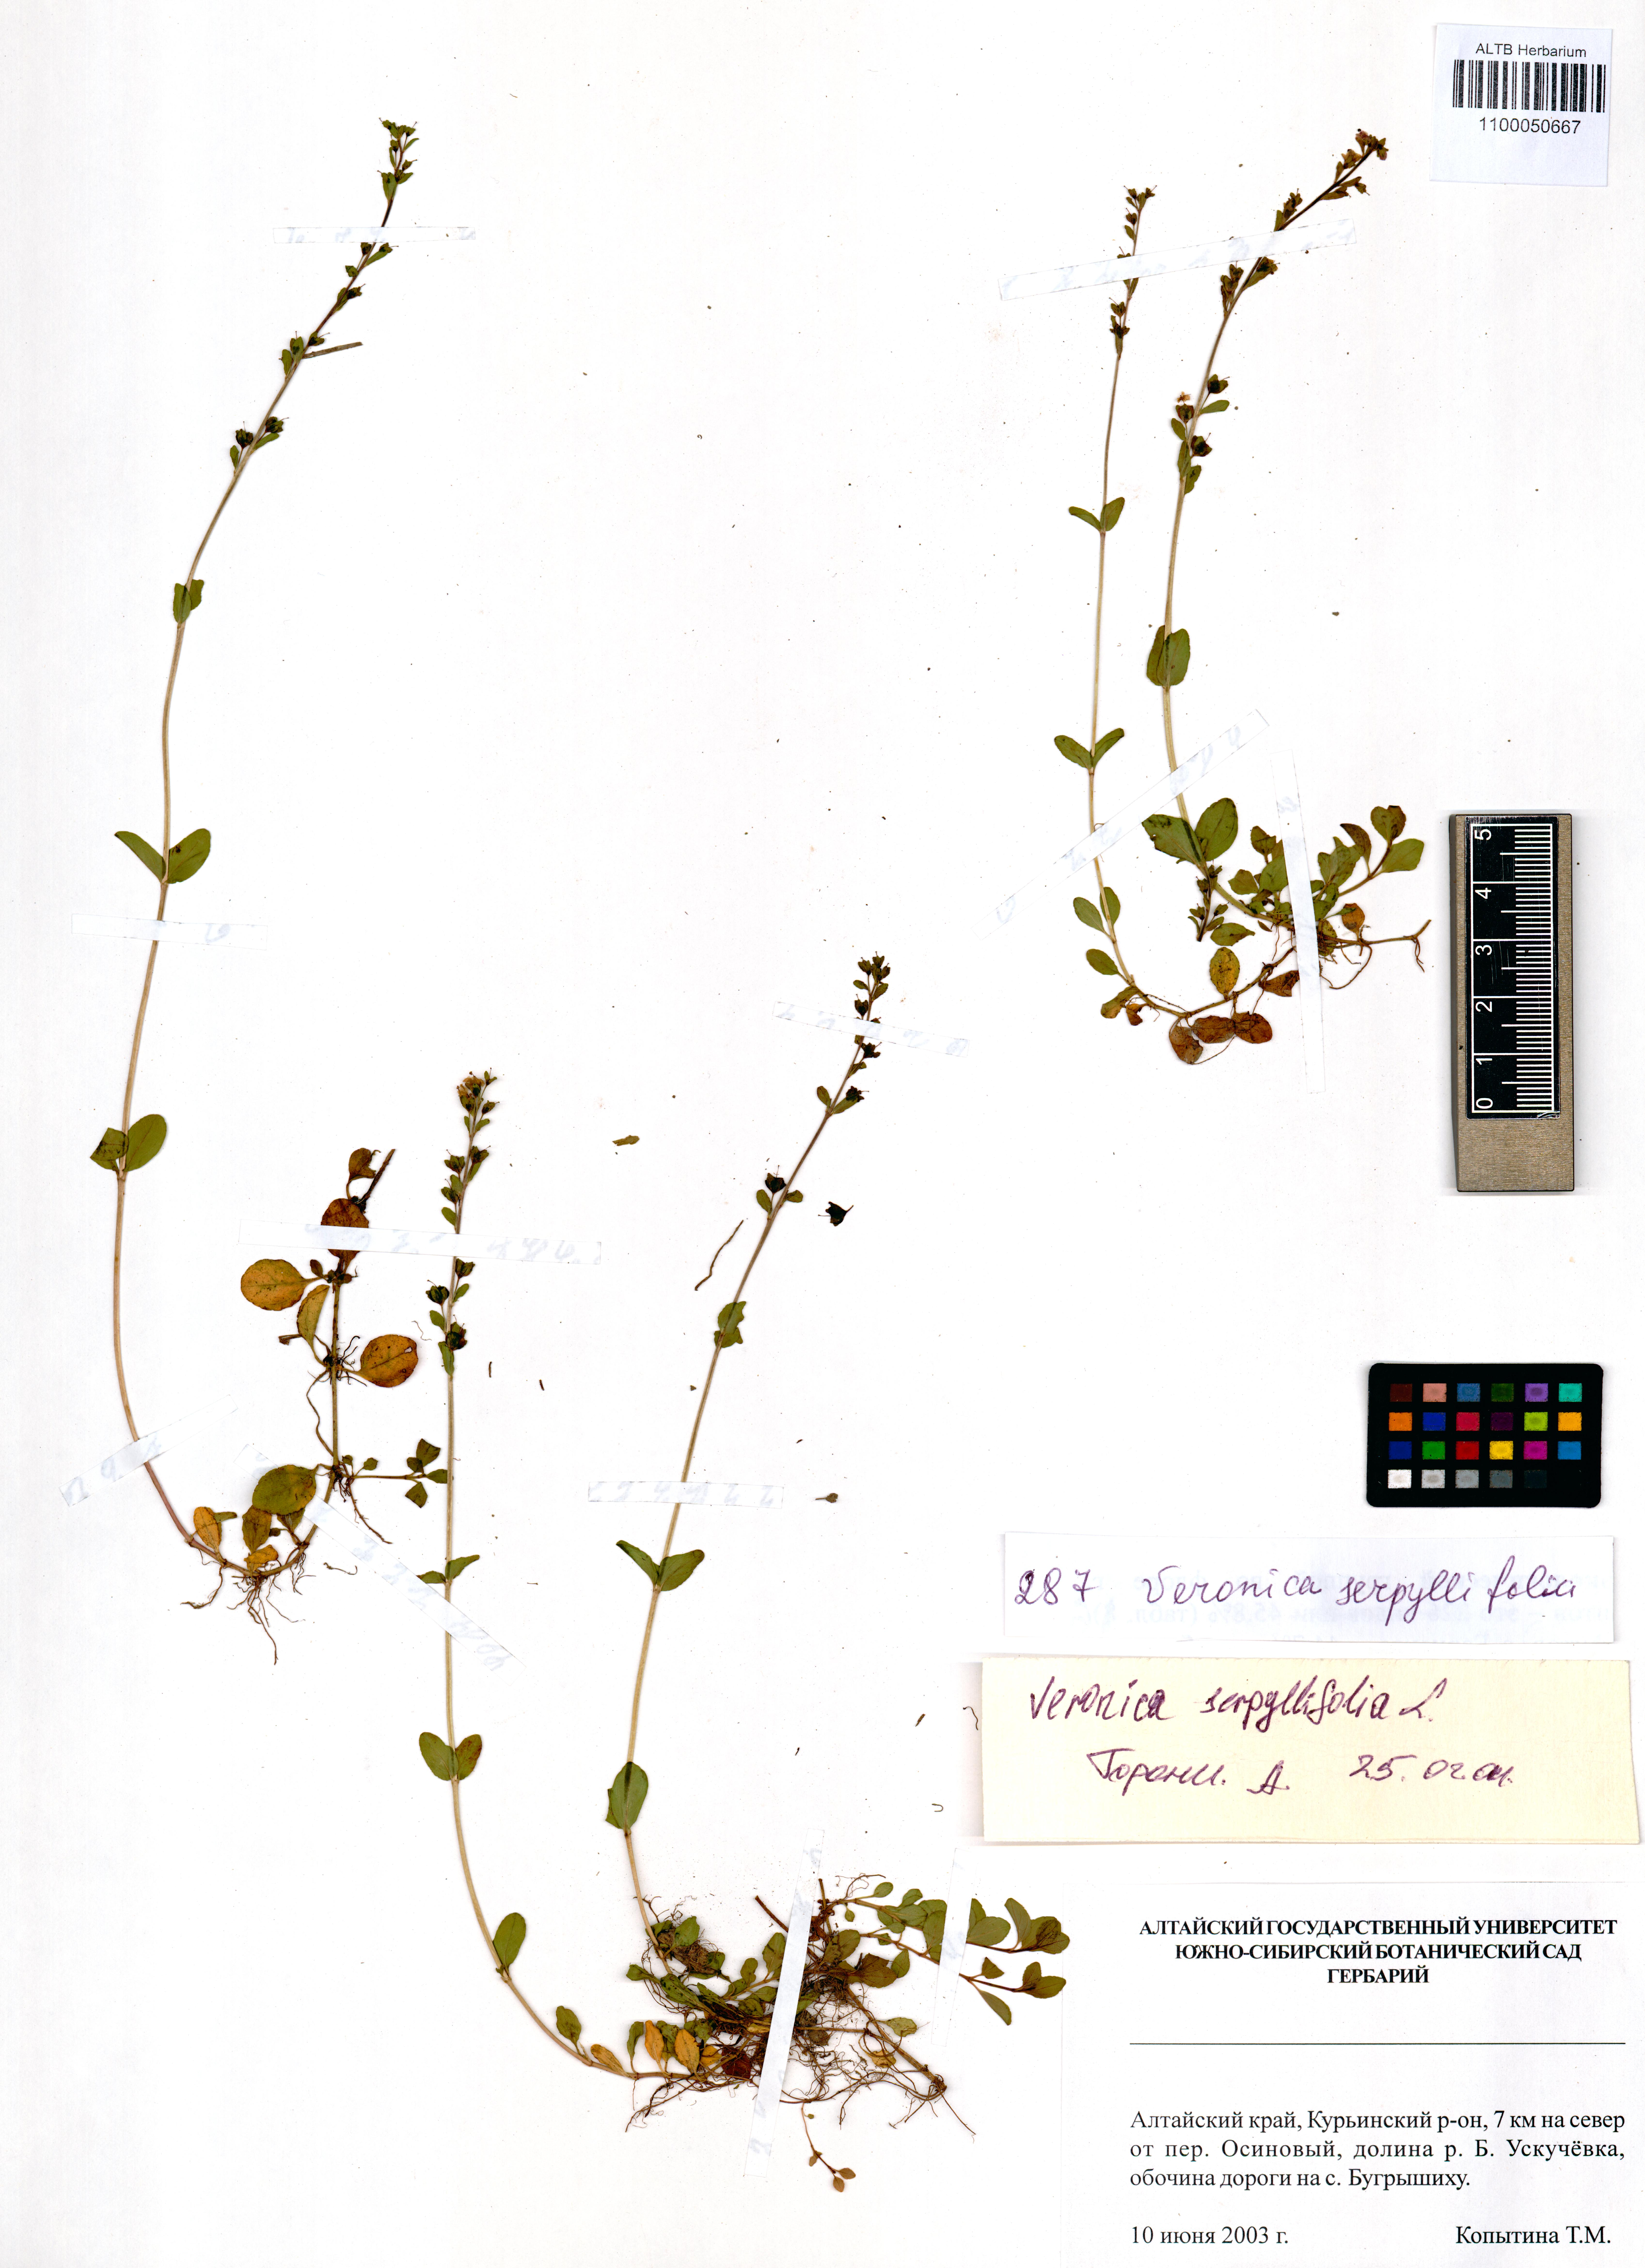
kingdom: Plantae
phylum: Tracheophyta
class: Magnoliopsida
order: Lamiales
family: Plantaginaceae
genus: Veronica
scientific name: Veronica serpyllifolia
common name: Thyme-leaved speedwell
